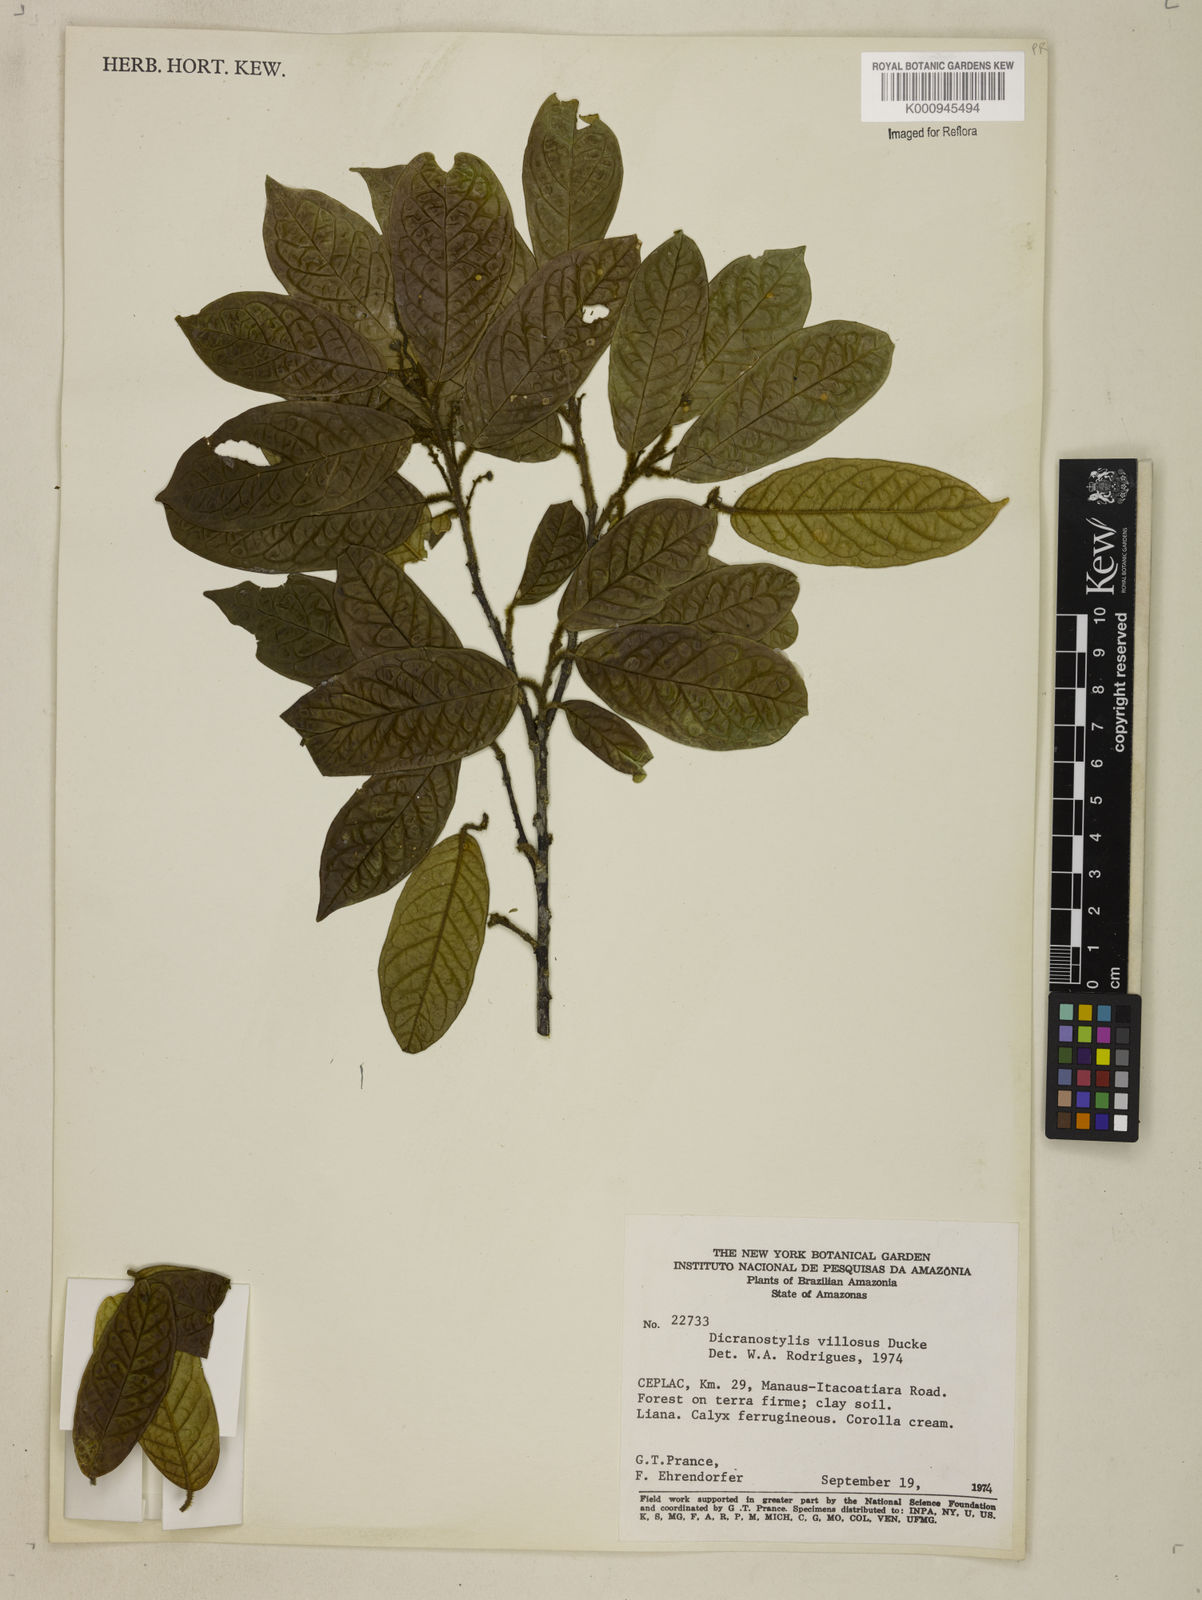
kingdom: Plantae
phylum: Tracheophyta
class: Magnoliopsida
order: Solanales
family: Convolvulaceae
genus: Dicranostyles
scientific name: Dicranostyles villosa
